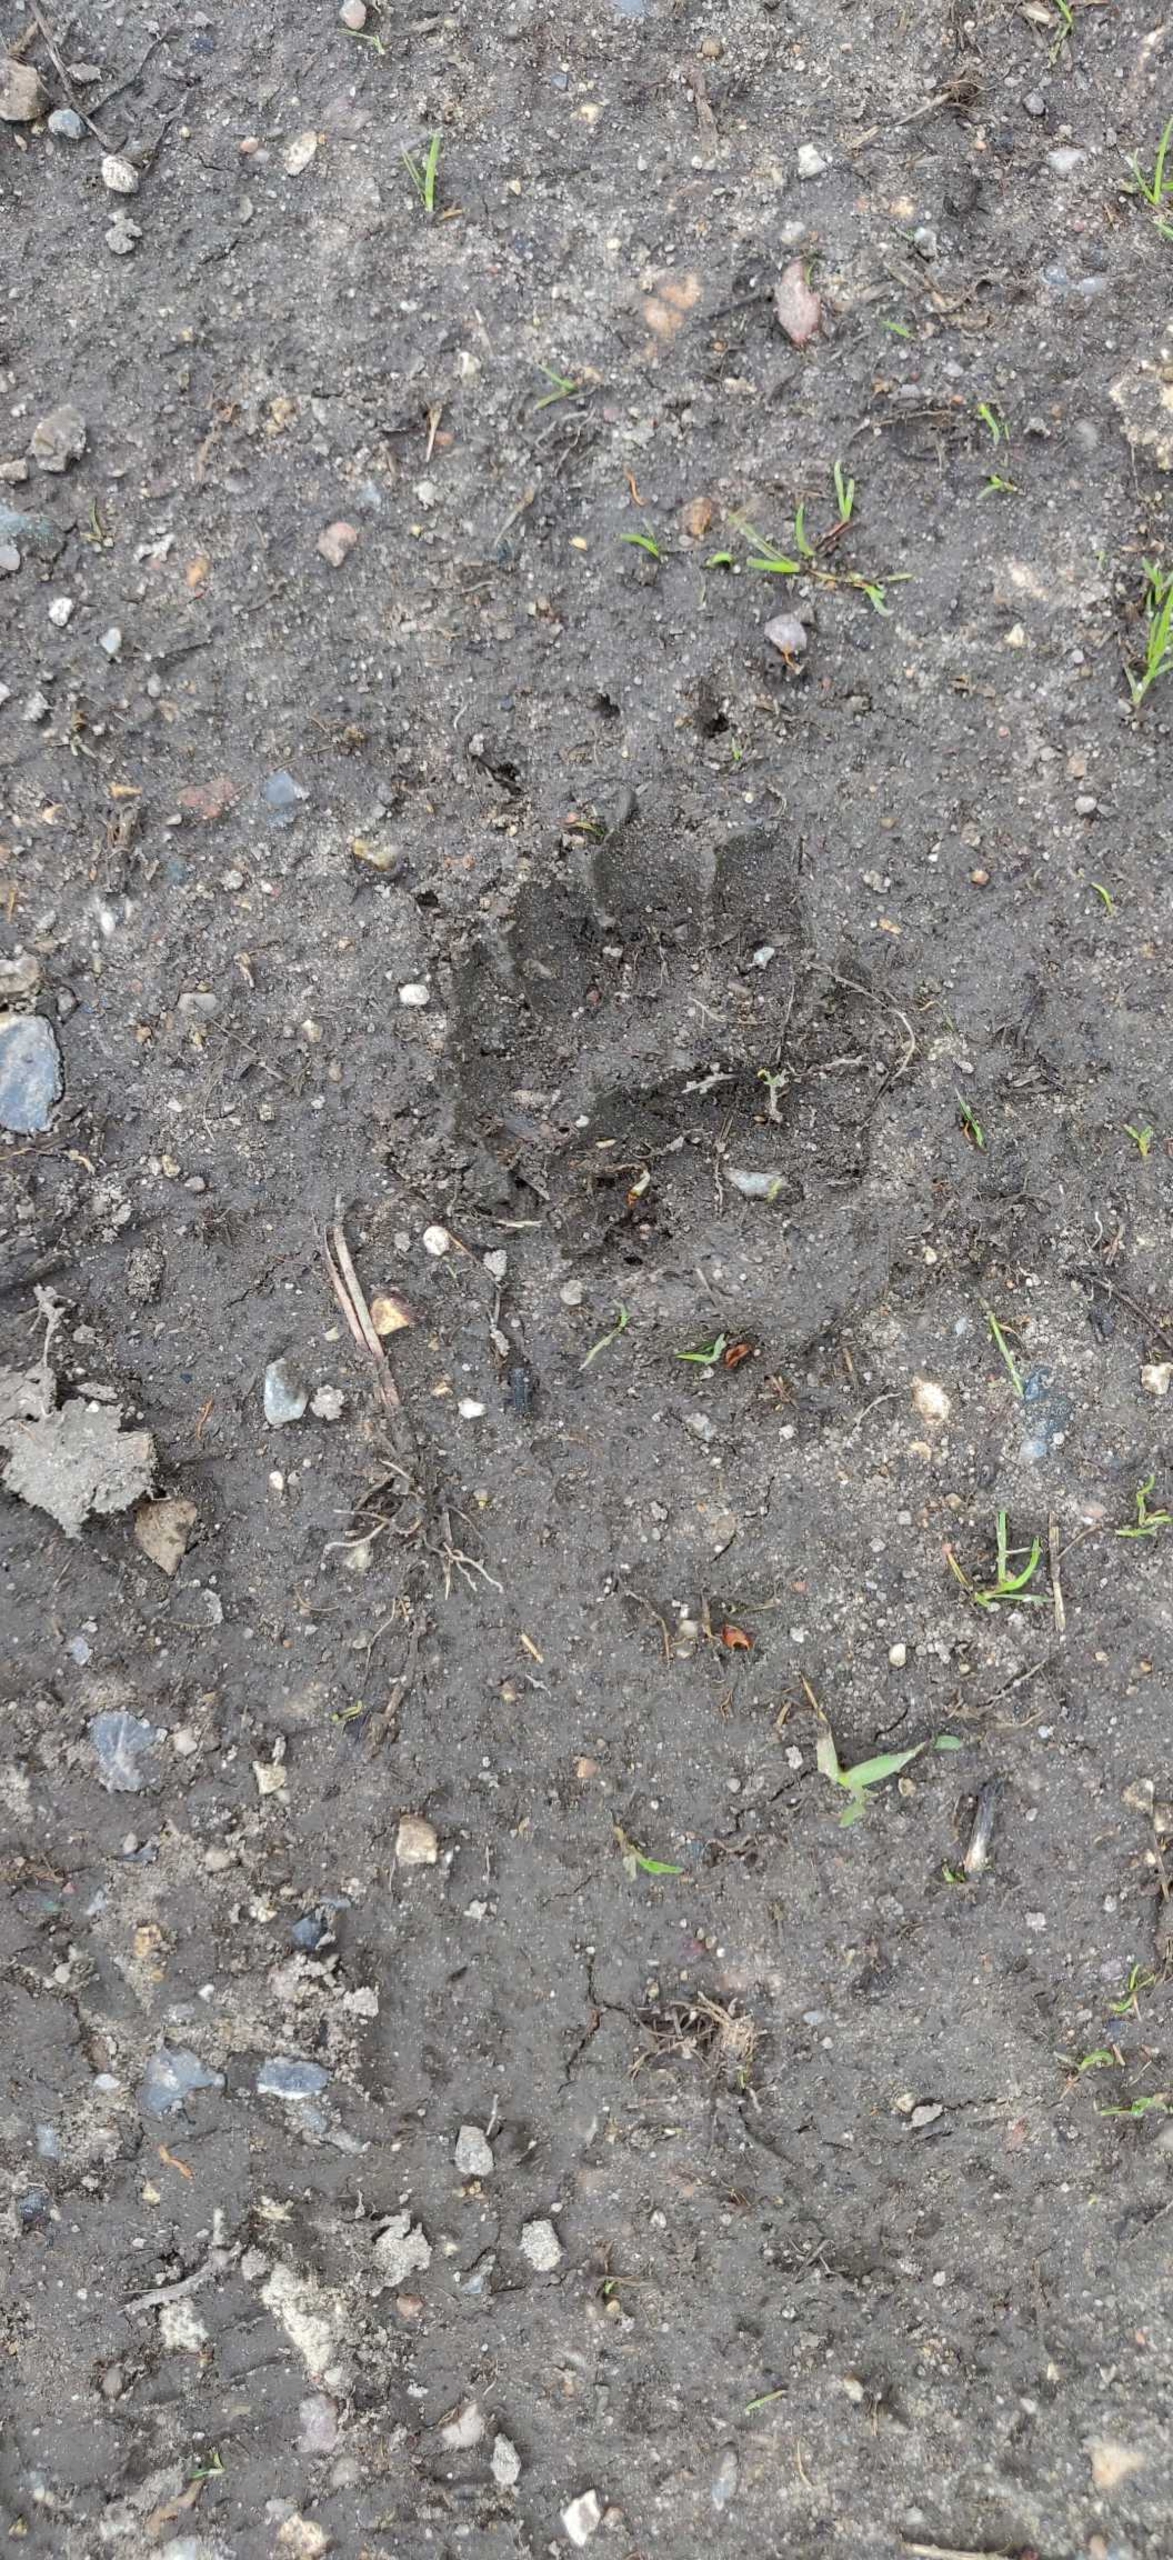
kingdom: Animalia
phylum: Chordata
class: Mammalia
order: Carnivora
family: Mustelidae
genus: Meles
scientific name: Meles meles
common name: Grævling
